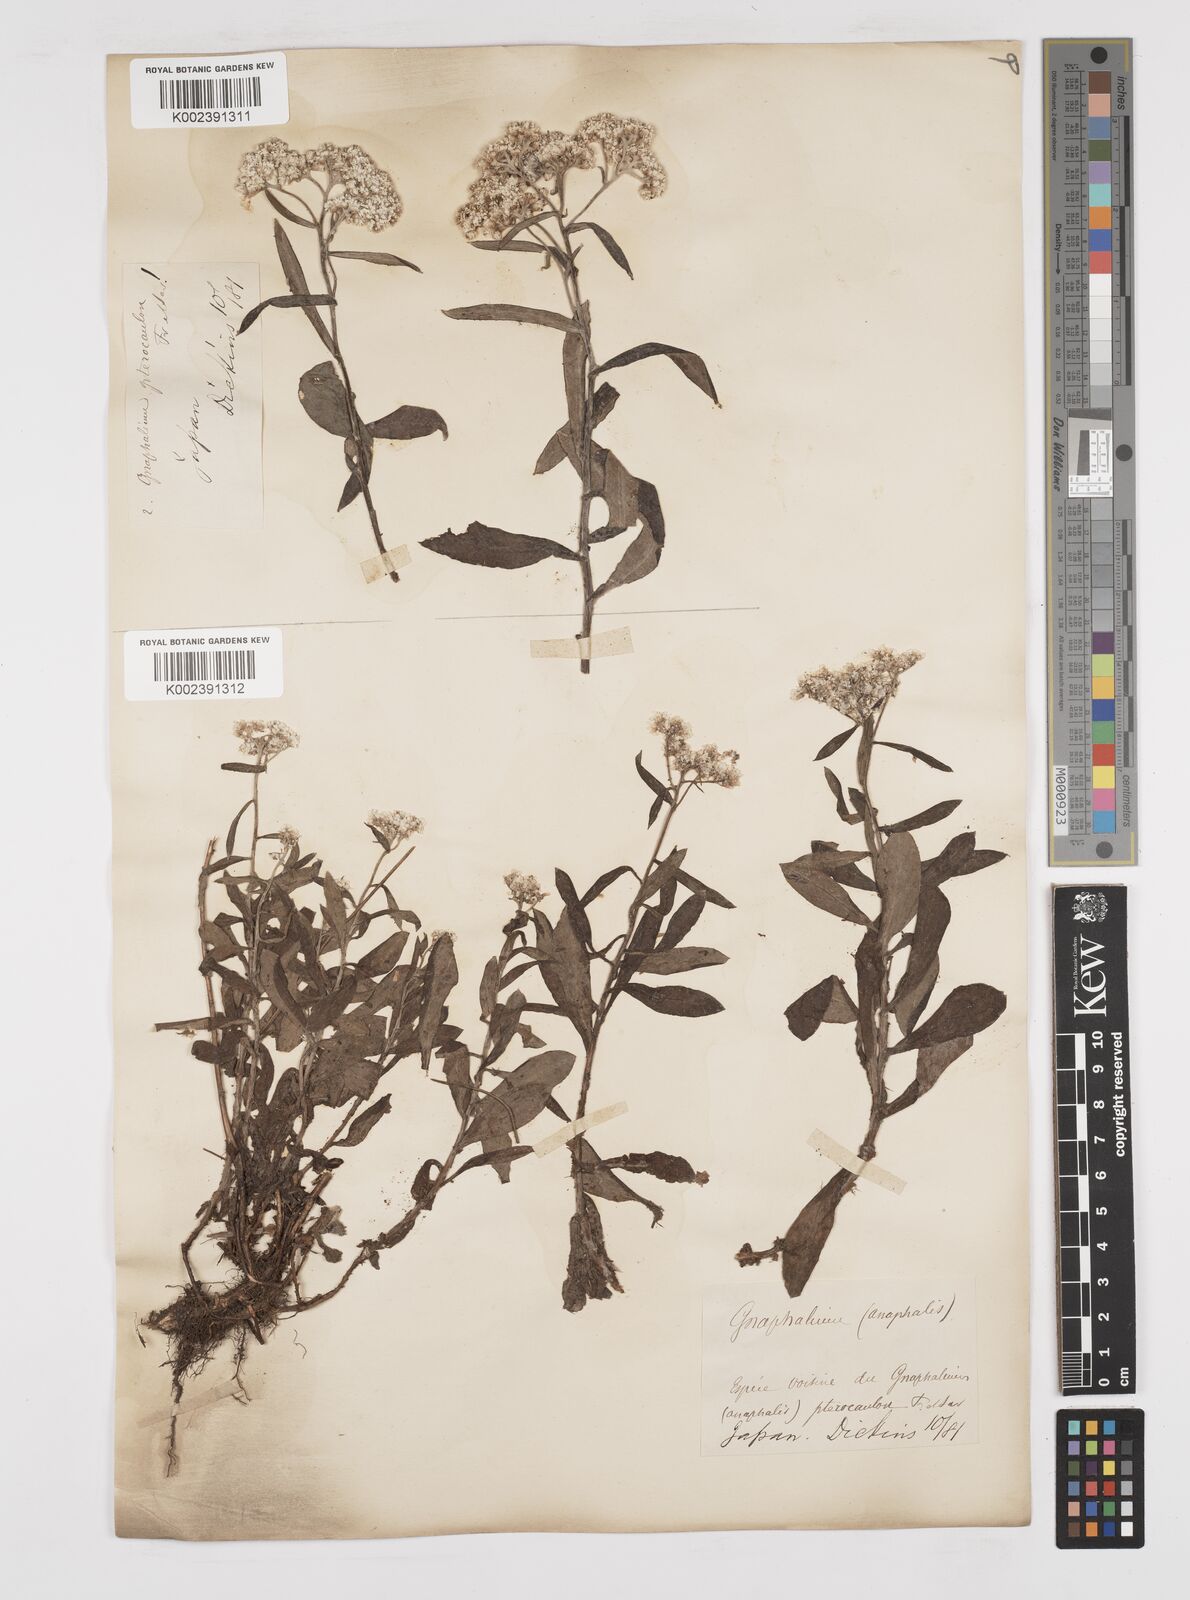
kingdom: Plantae
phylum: Tracheophyta
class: Magnoliopsida
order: Asterales
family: Asteraceae
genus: Anaphalis
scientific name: Anaphalis sinica
